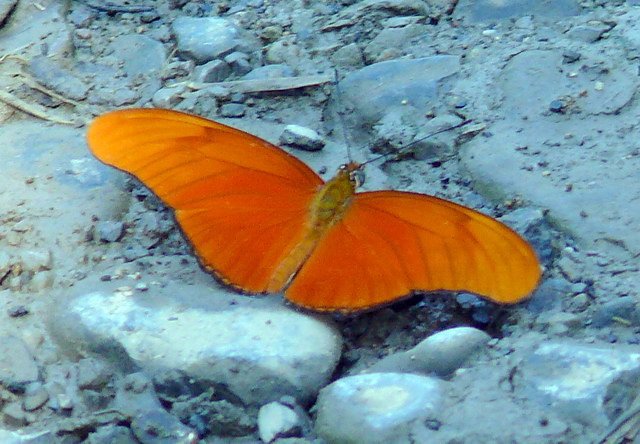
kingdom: Animalia
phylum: Arthropoda
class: Insecta
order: Lepidoptera
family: Nymphalidae
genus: Dryas
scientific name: Dryas iulia
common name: Julia
